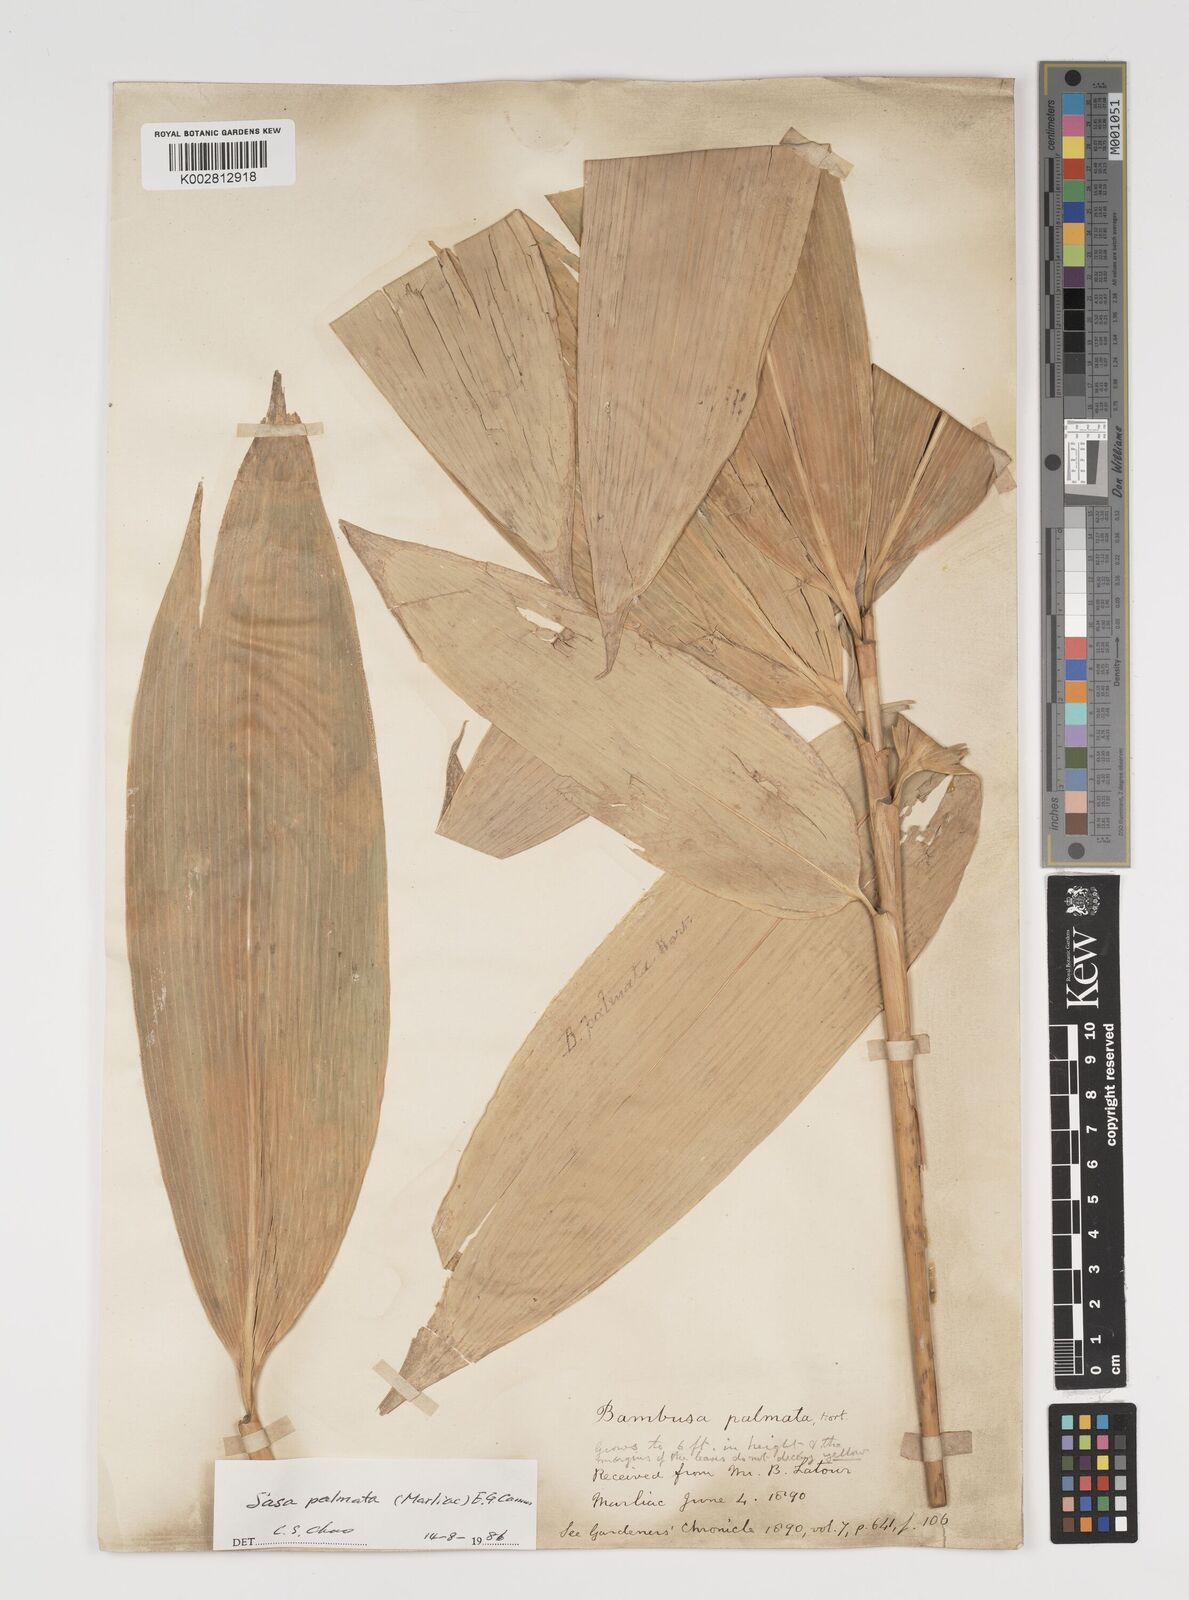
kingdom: Plantae
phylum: Tracheophyta
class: Liliopsida
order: Poales
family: Poaceae
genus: Sasa
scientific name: Sasa palmata
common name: Broad-leaved bamboo
